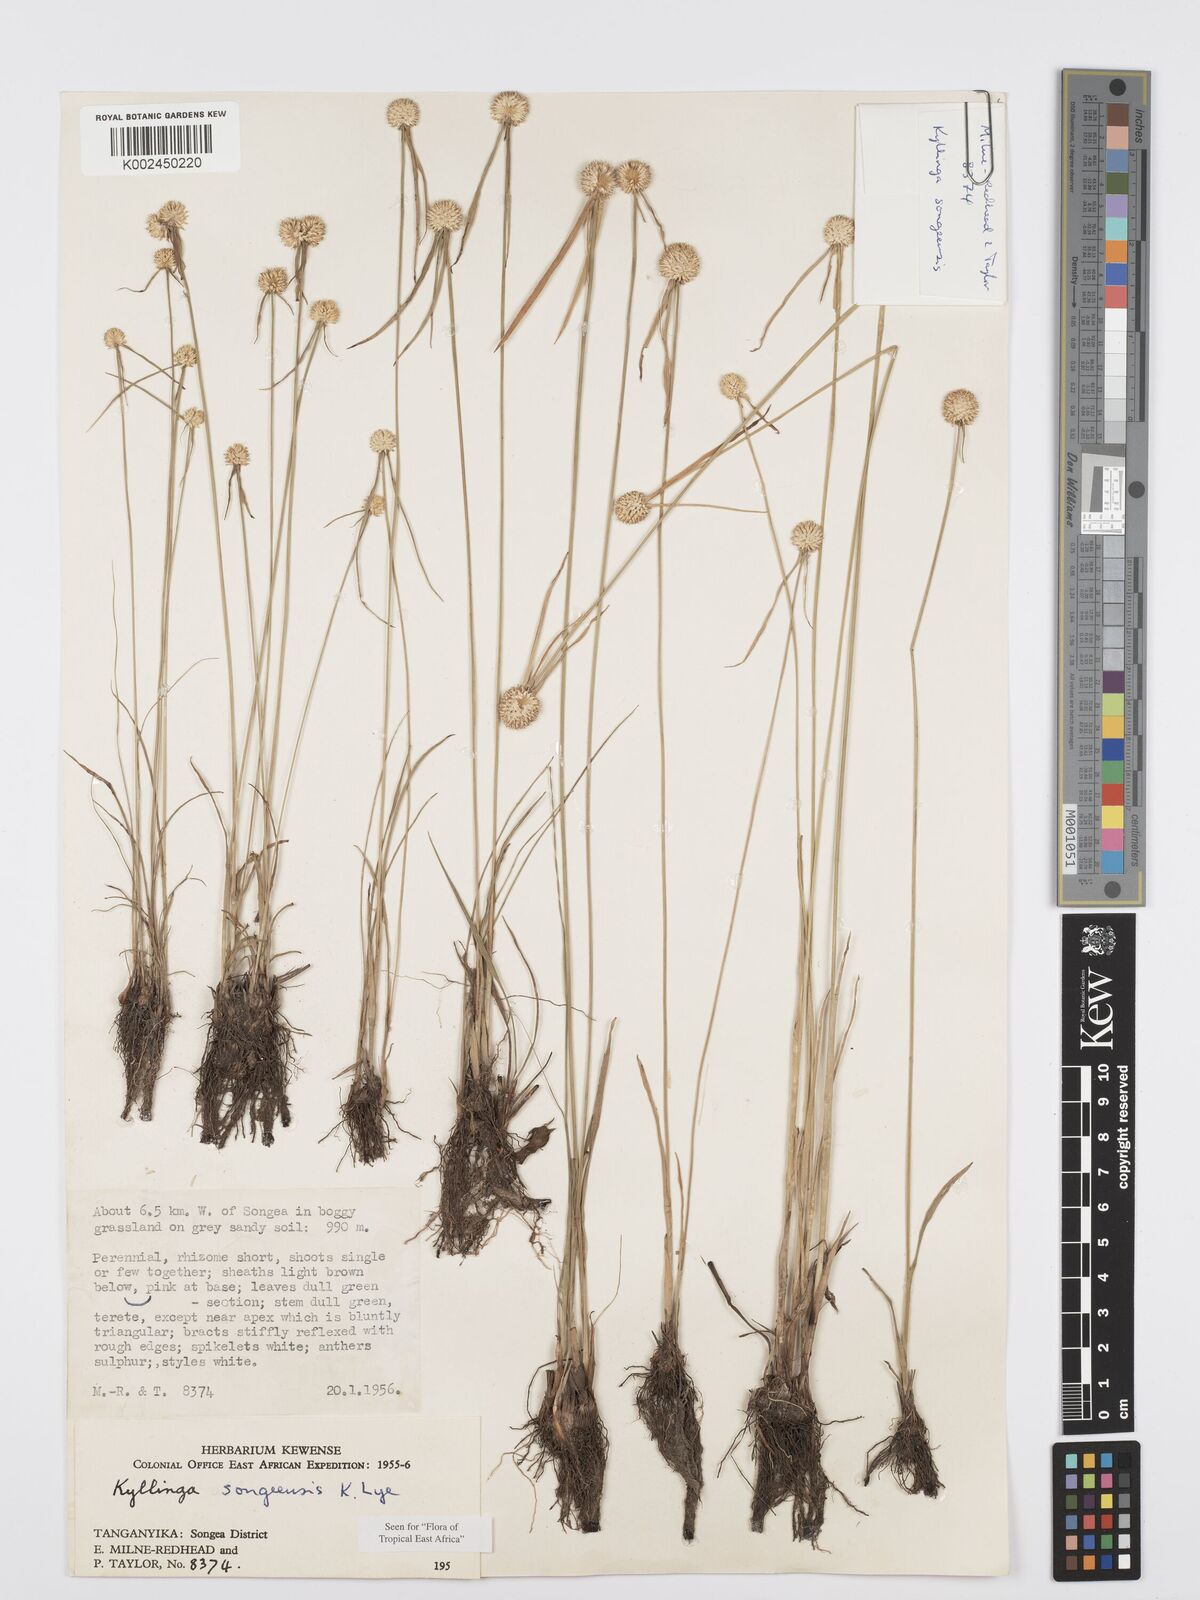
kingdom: Plantae
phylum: Tracheophyta
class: Liliopsida
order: Poales
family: Cyperaceae
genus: Cyperus
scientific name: Cyperus songeensis
